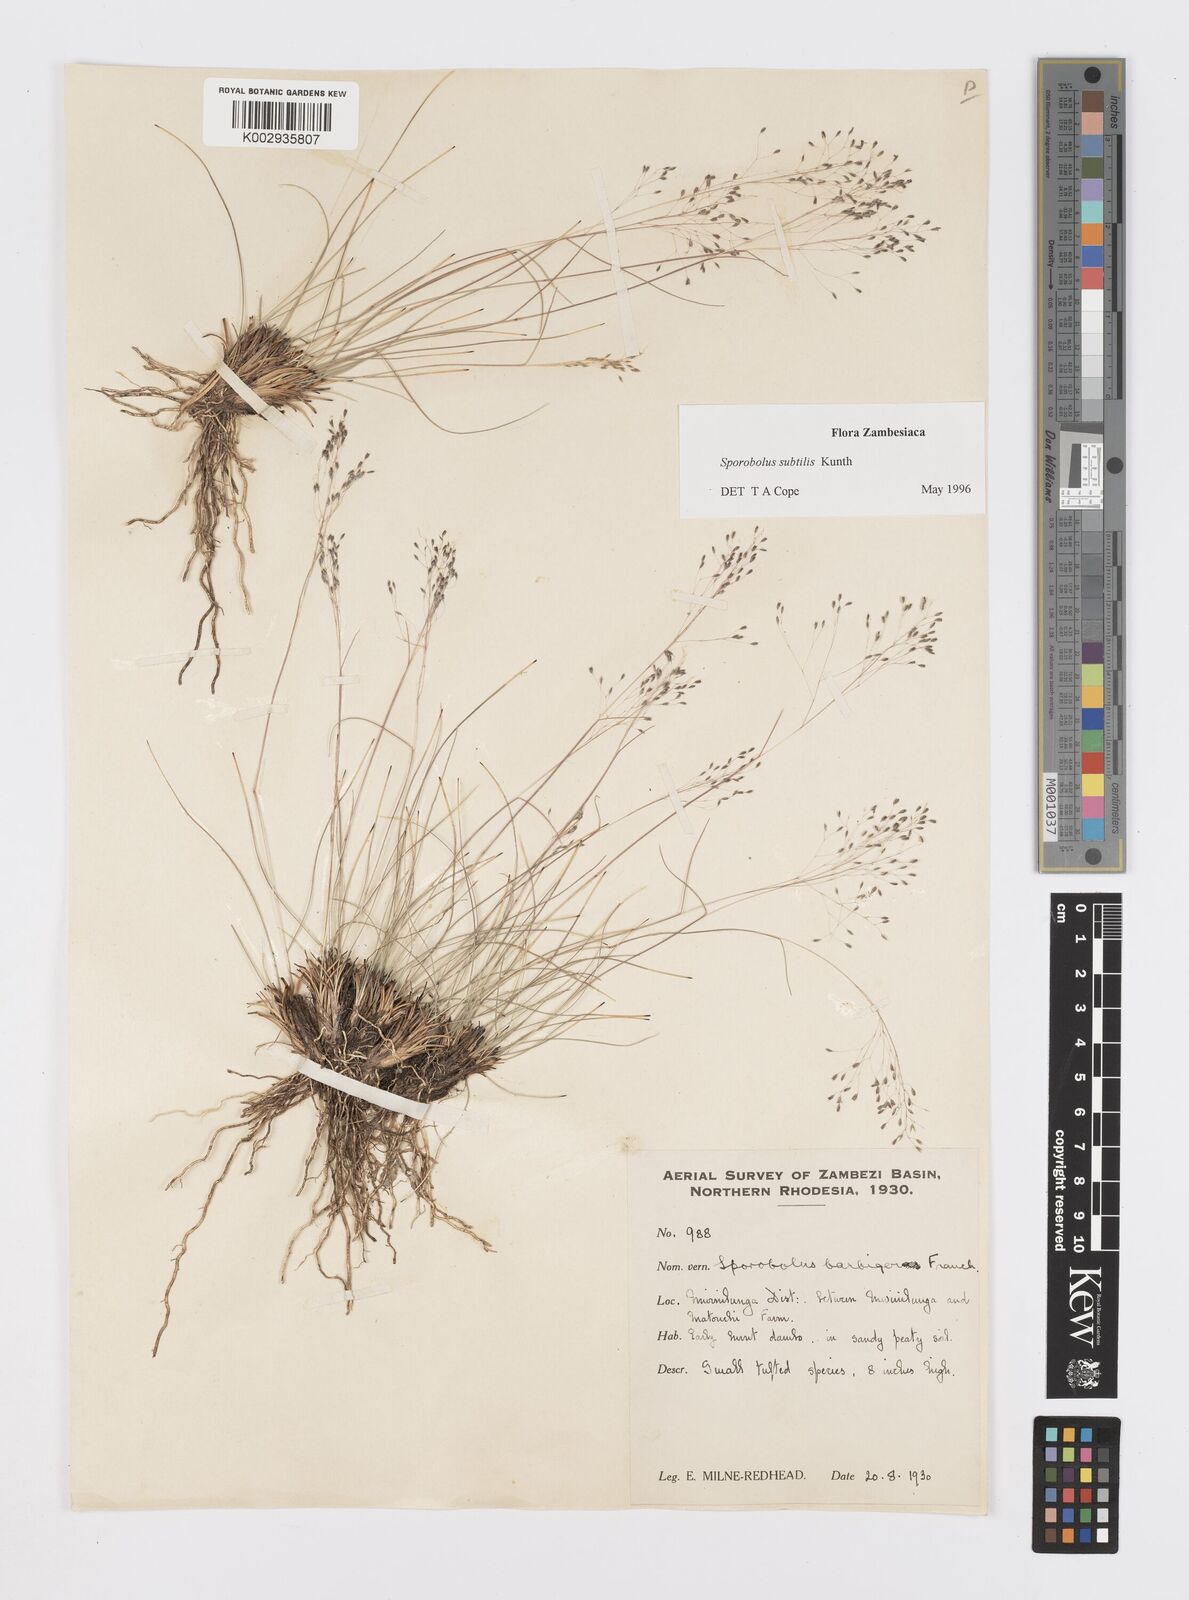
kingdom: Plantae
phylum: Tracheophyta
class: Liliopsida
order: Poales
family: Poaceae
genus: Sporobolus
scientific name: Sporobolus subtilis
